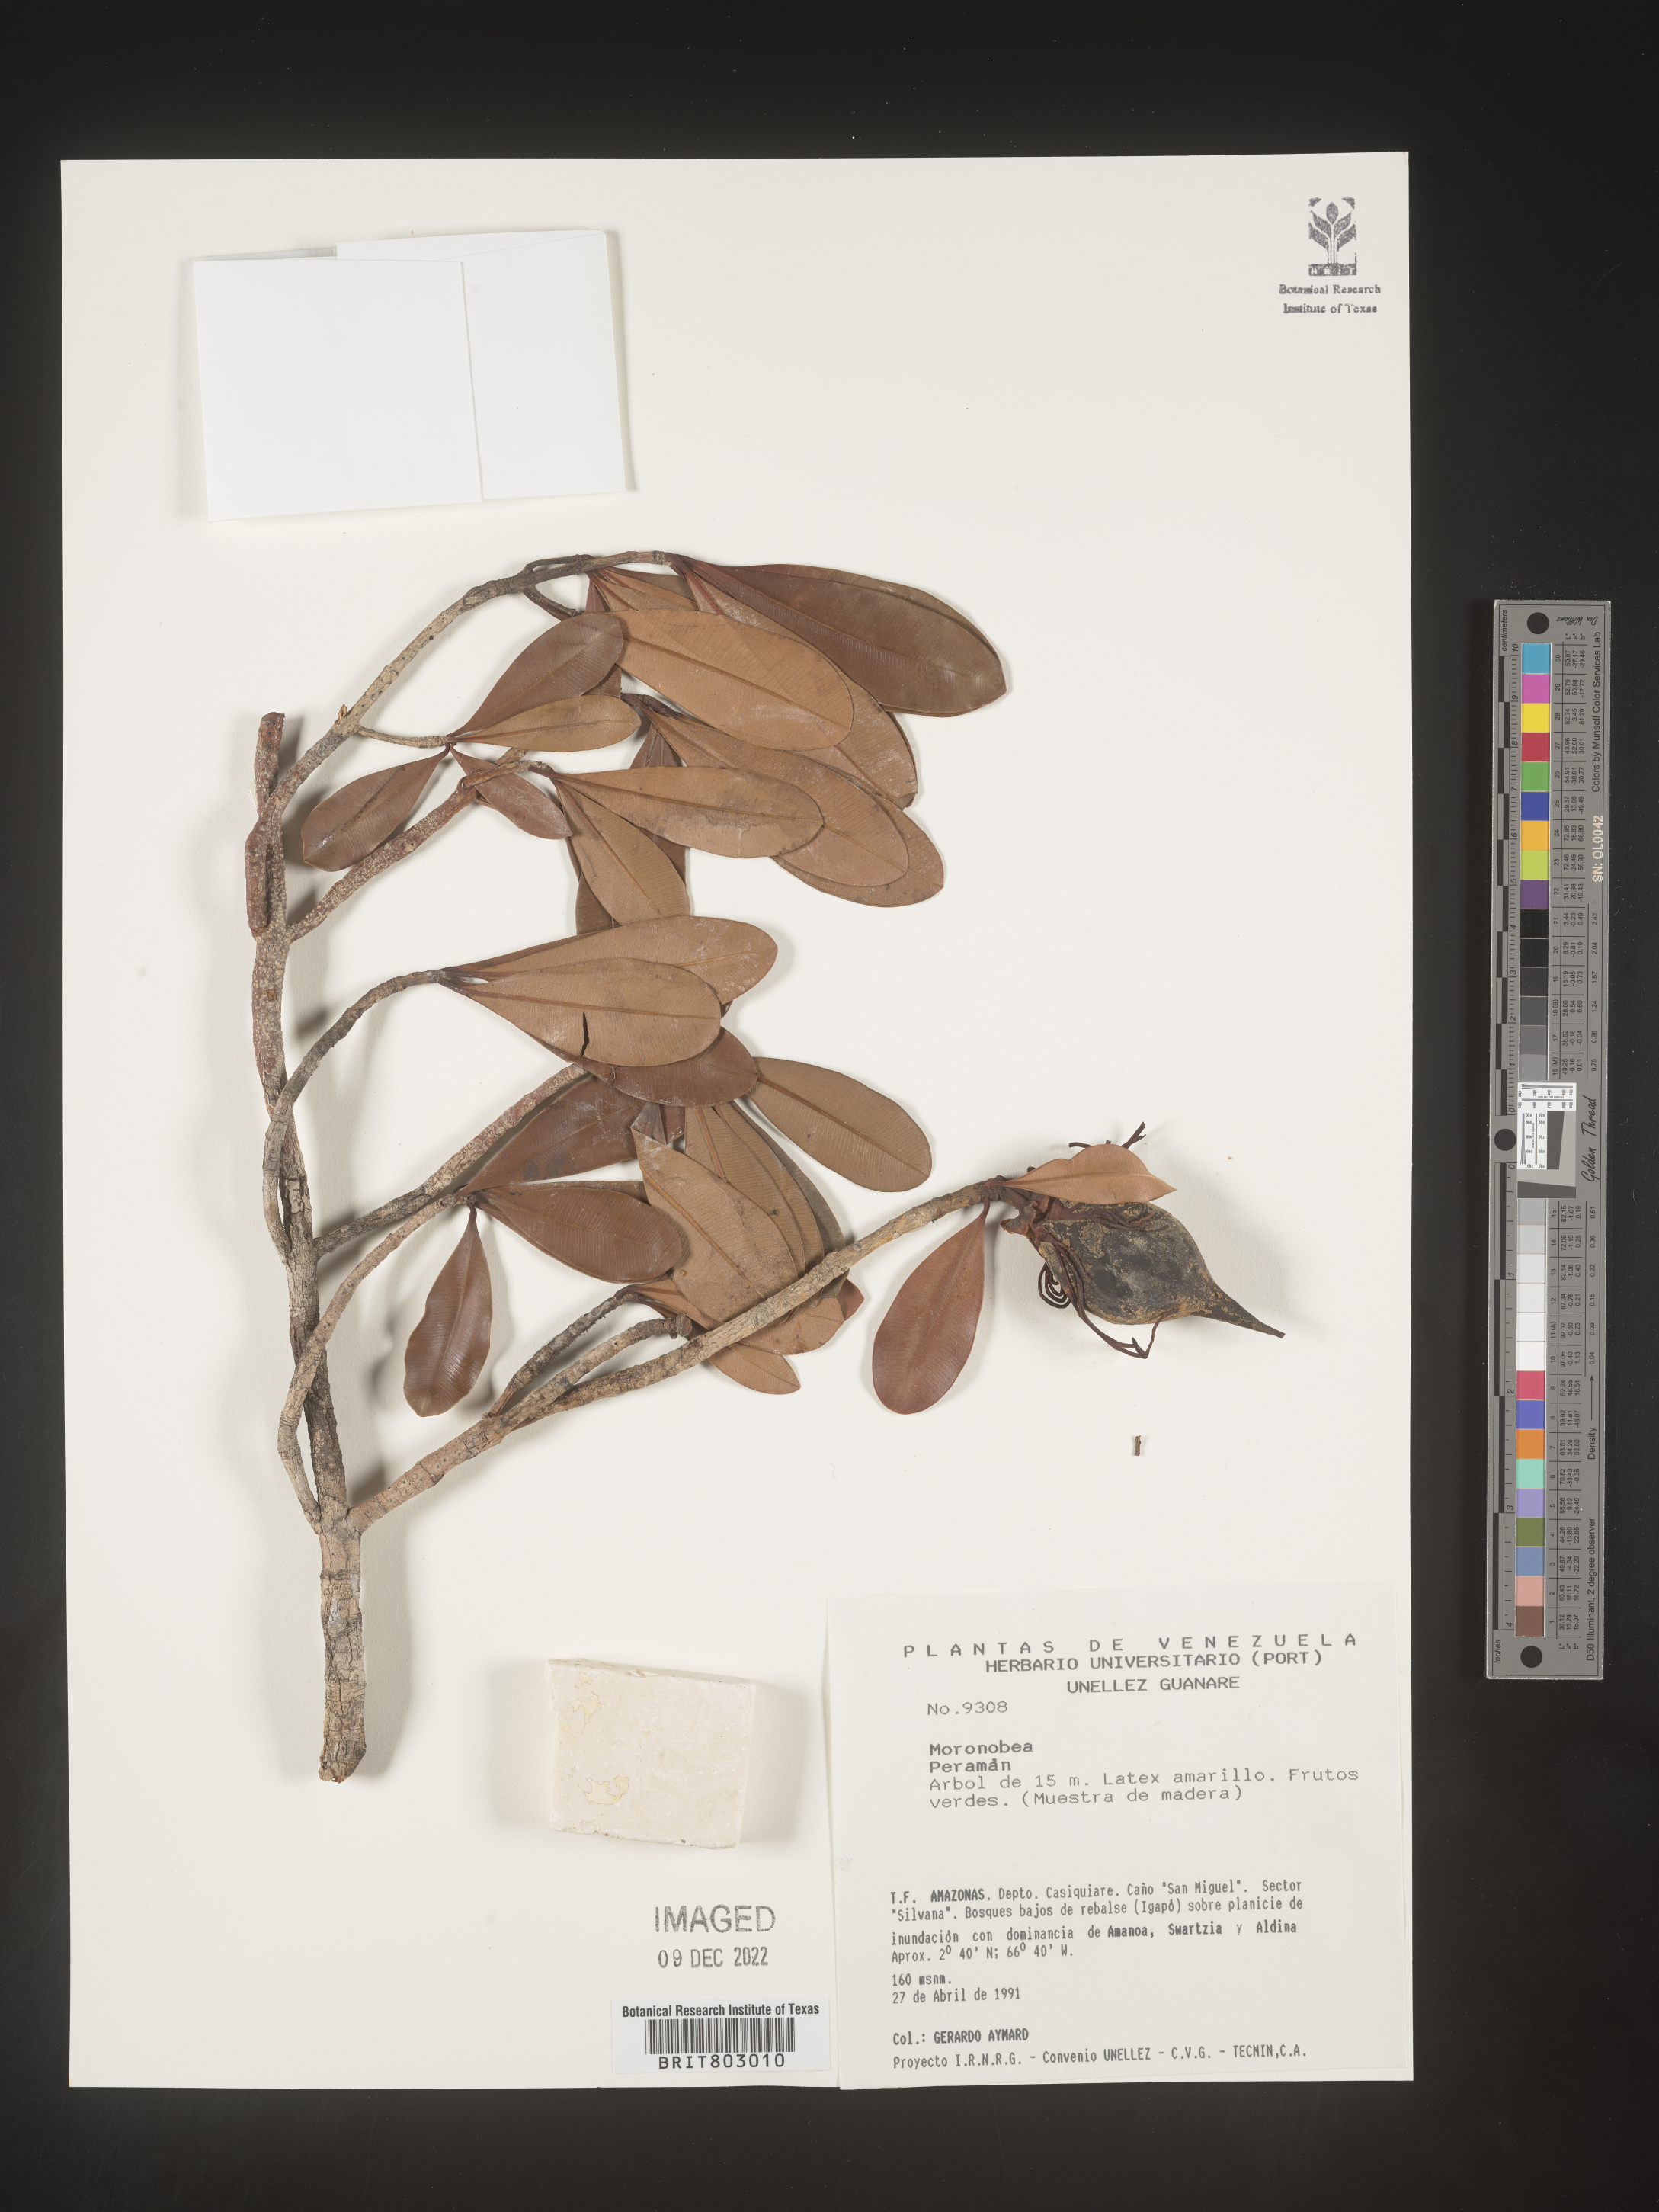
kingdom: Plantae
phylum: Tracheophyta
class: Magnoliopsida
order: Malpighiales
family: Clusiaceae
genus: Moronobea
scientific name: Moronobea
